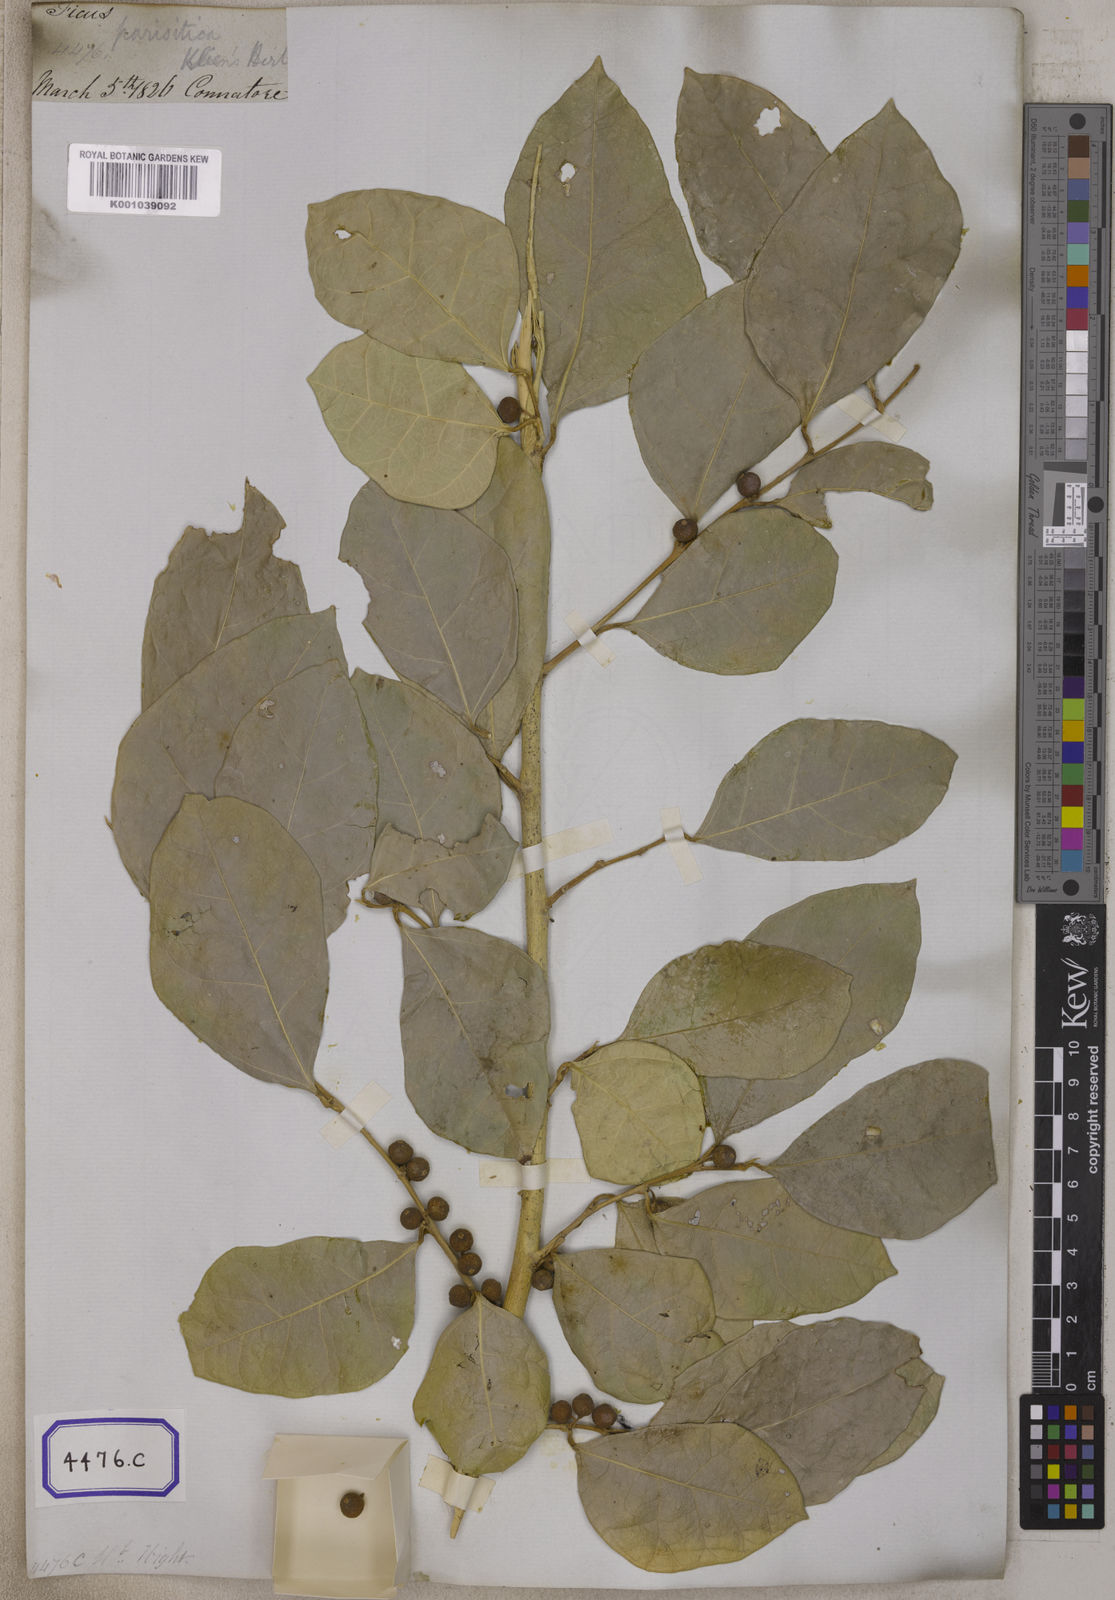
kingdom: Plantae
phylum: Tracheophyta
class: Magnoliopsida
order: Rosales
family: Moraceae
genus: Ficus
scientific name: Ficus tinctoria
